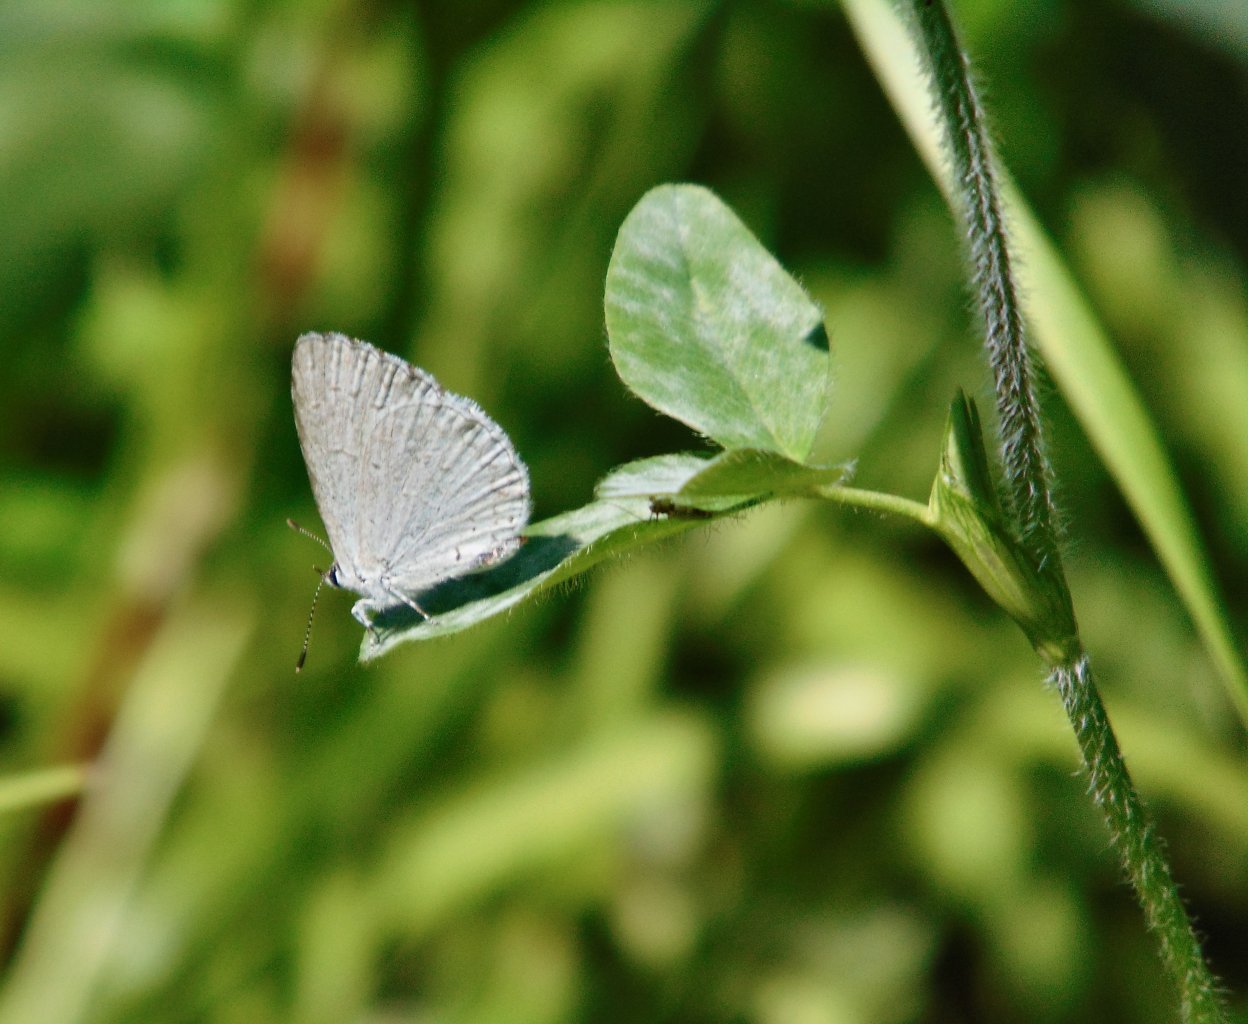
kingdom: Animalia
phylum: Arthropoda
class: Insecta
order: Lepidoptera
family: Lycaenidae
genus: Cyaniris
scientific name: Cyaniris neglecta
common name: Summer Azure
